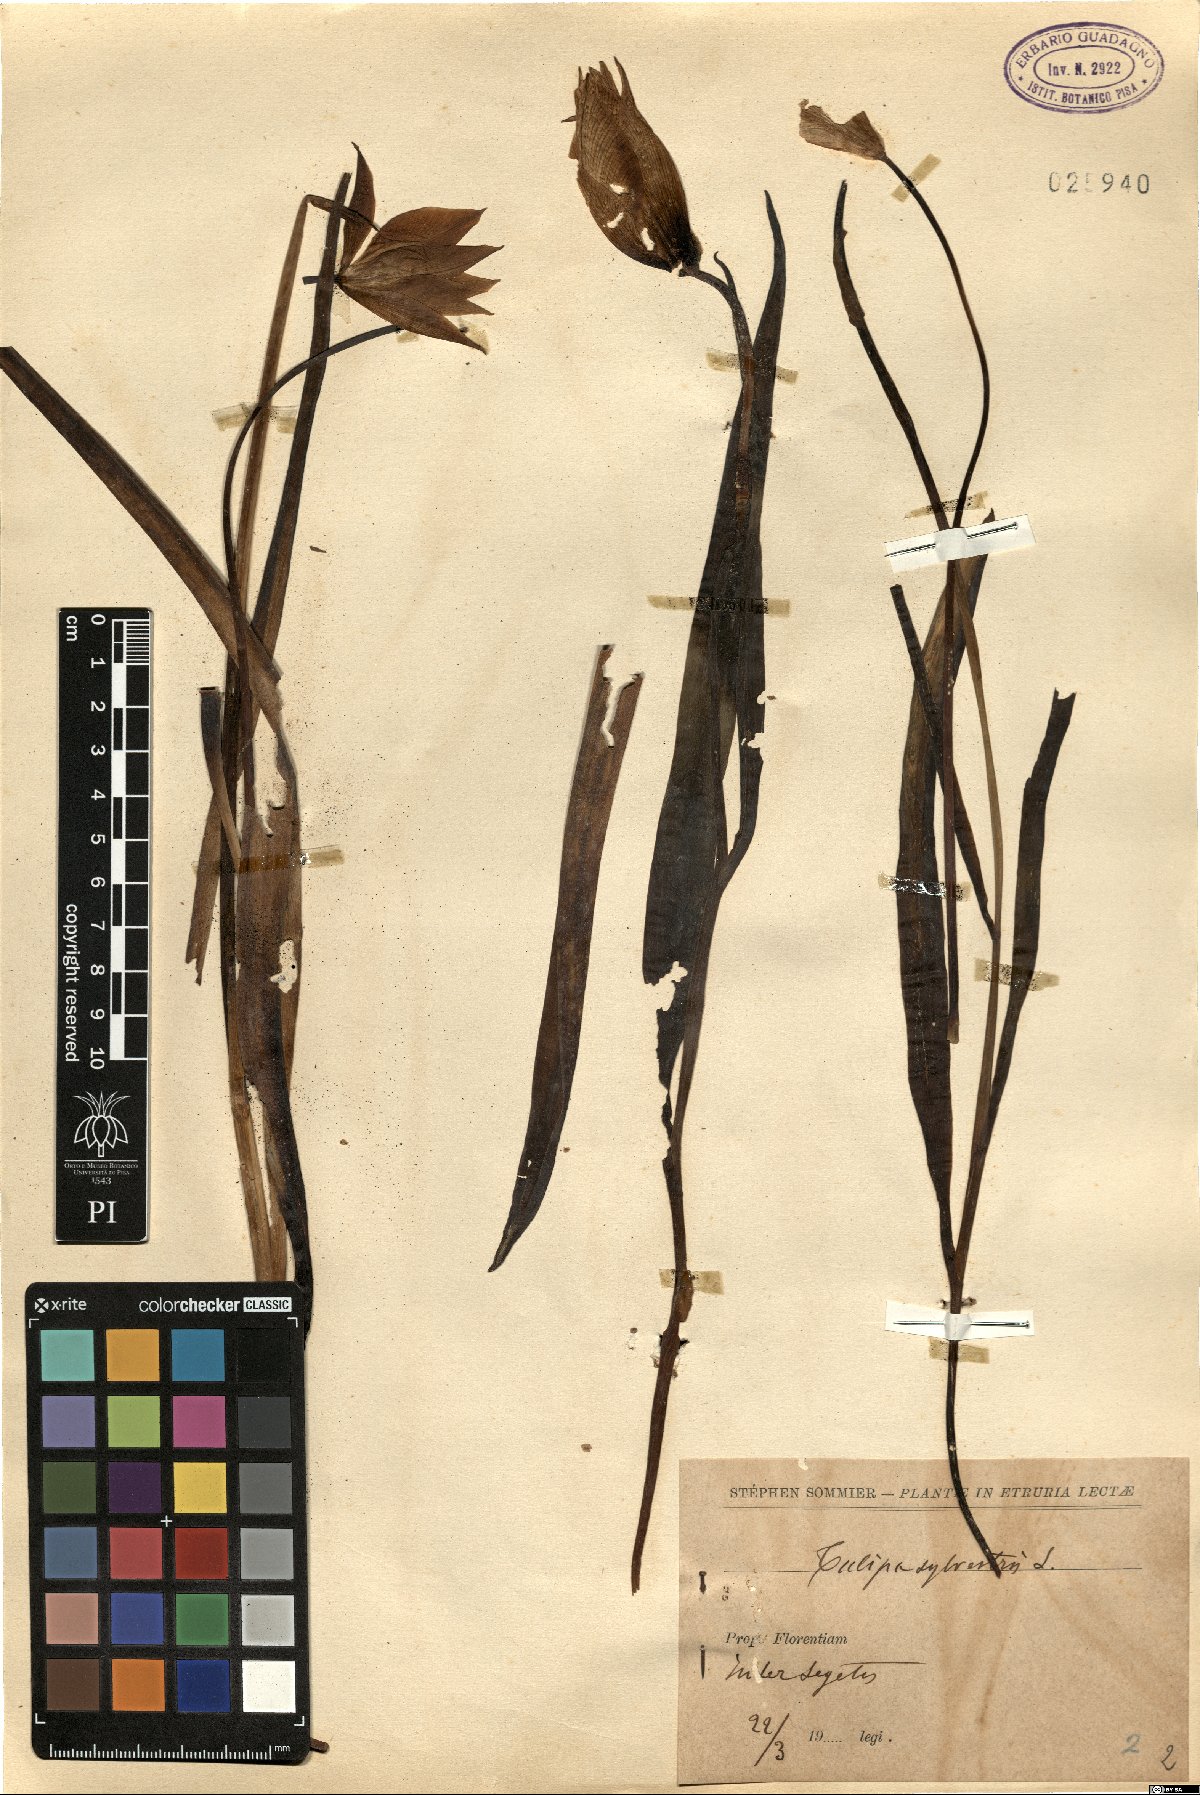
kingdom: Plantae
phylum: Tracheophyta
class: Liliopsida
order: Liliales
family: Liliaceae
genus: Tulipa
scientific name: Tulipa sylvestris
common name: Wild tulip
